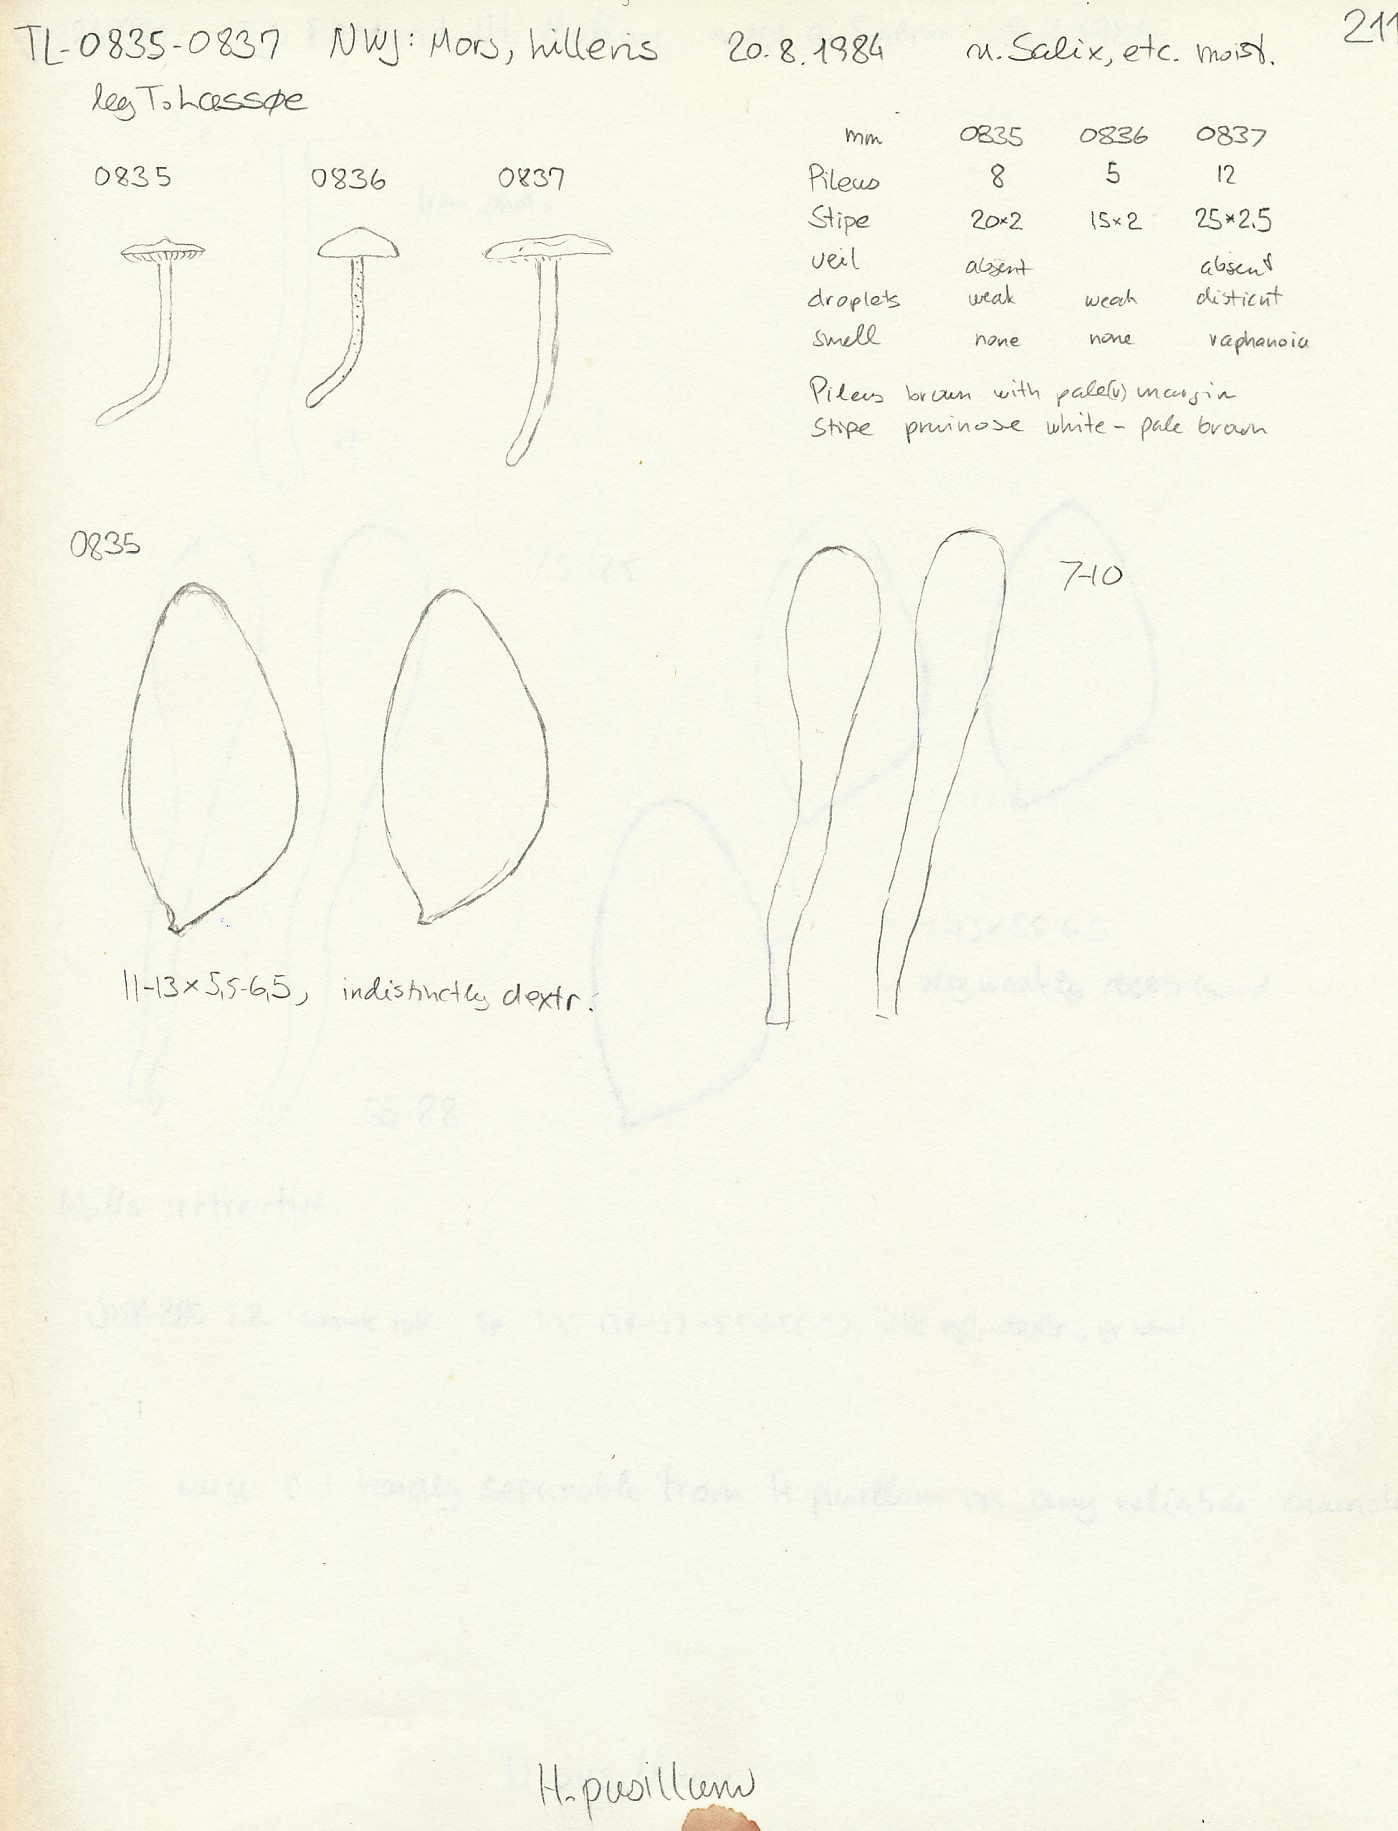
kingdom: Fungi
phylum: Basidiomycota
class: Agaricomycetes
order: Agaricales
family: Hymenogastraceae
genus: Hebeloma
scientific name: Hebeloma pusillum
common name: mose-tåreblad
